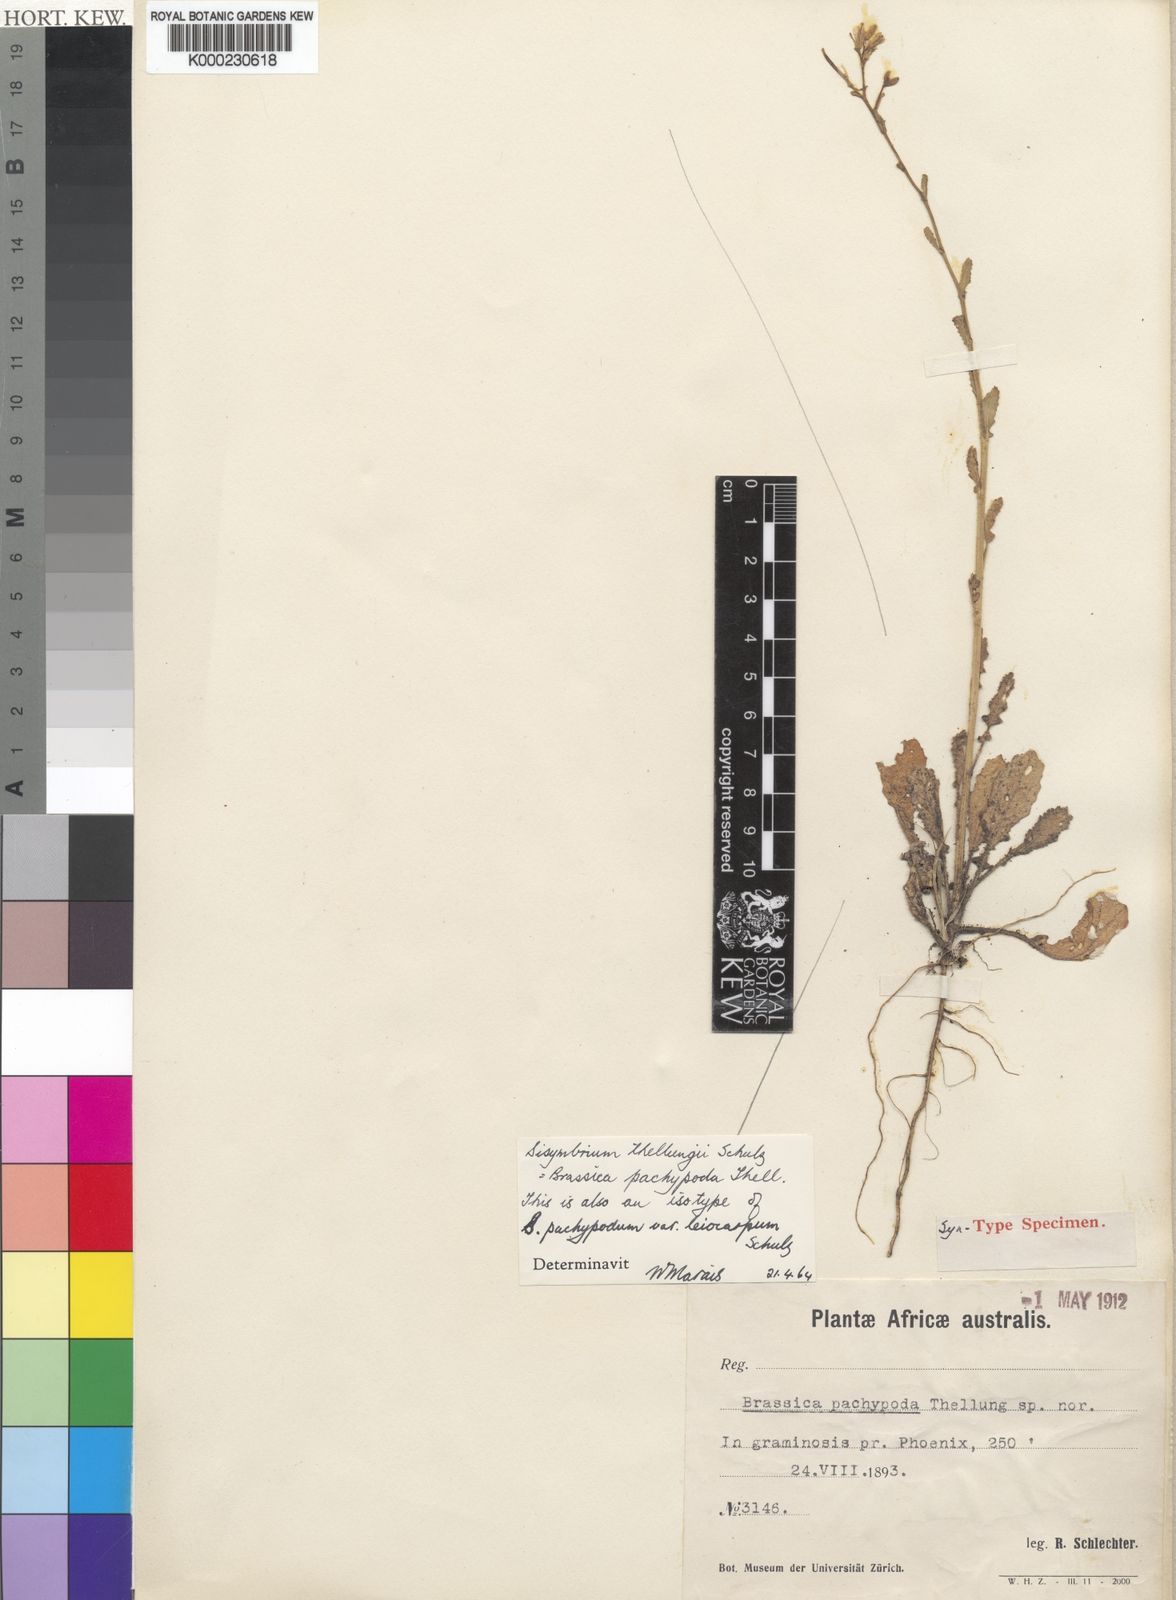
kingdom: Plantae
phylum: Tracheophyta
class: Magnoliopsida
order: Brassicales
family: Brassicaceae
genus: Erucastrum
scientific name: Erucastrum austroafricanum
